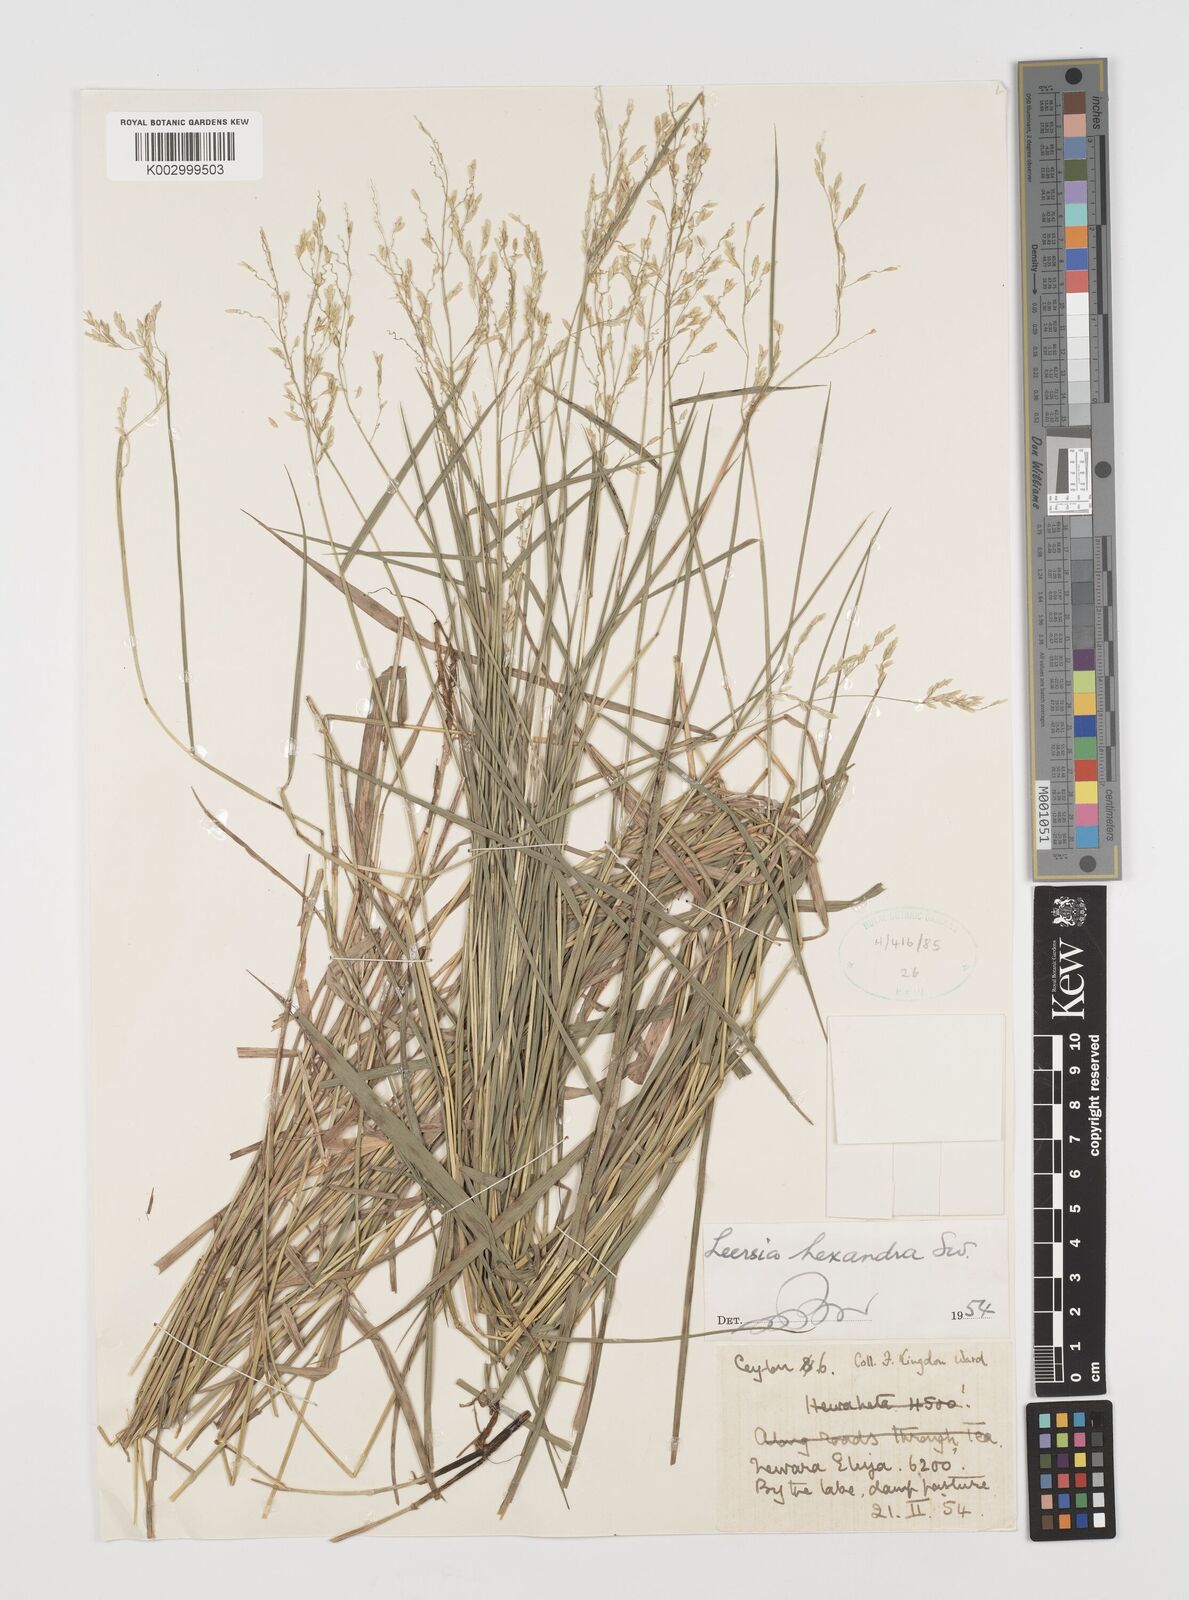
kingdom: Plantae
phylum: Tracheophyta
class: Liliopsida
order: Poales
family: Poaceae
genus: Leersia
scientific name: Leersia hexandra
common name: Southern cut grass
